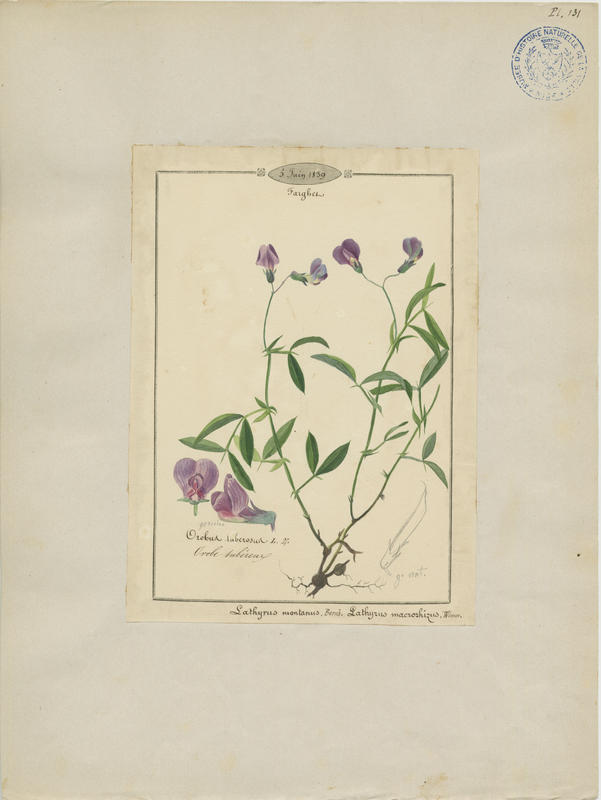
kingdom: Plantae
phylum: Tracheophyta
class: Magnoliopsida
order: Fabales
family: Fabaceae
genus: Lathyrus
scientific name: Lathyrus tuberosus
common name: Tuberous pea
